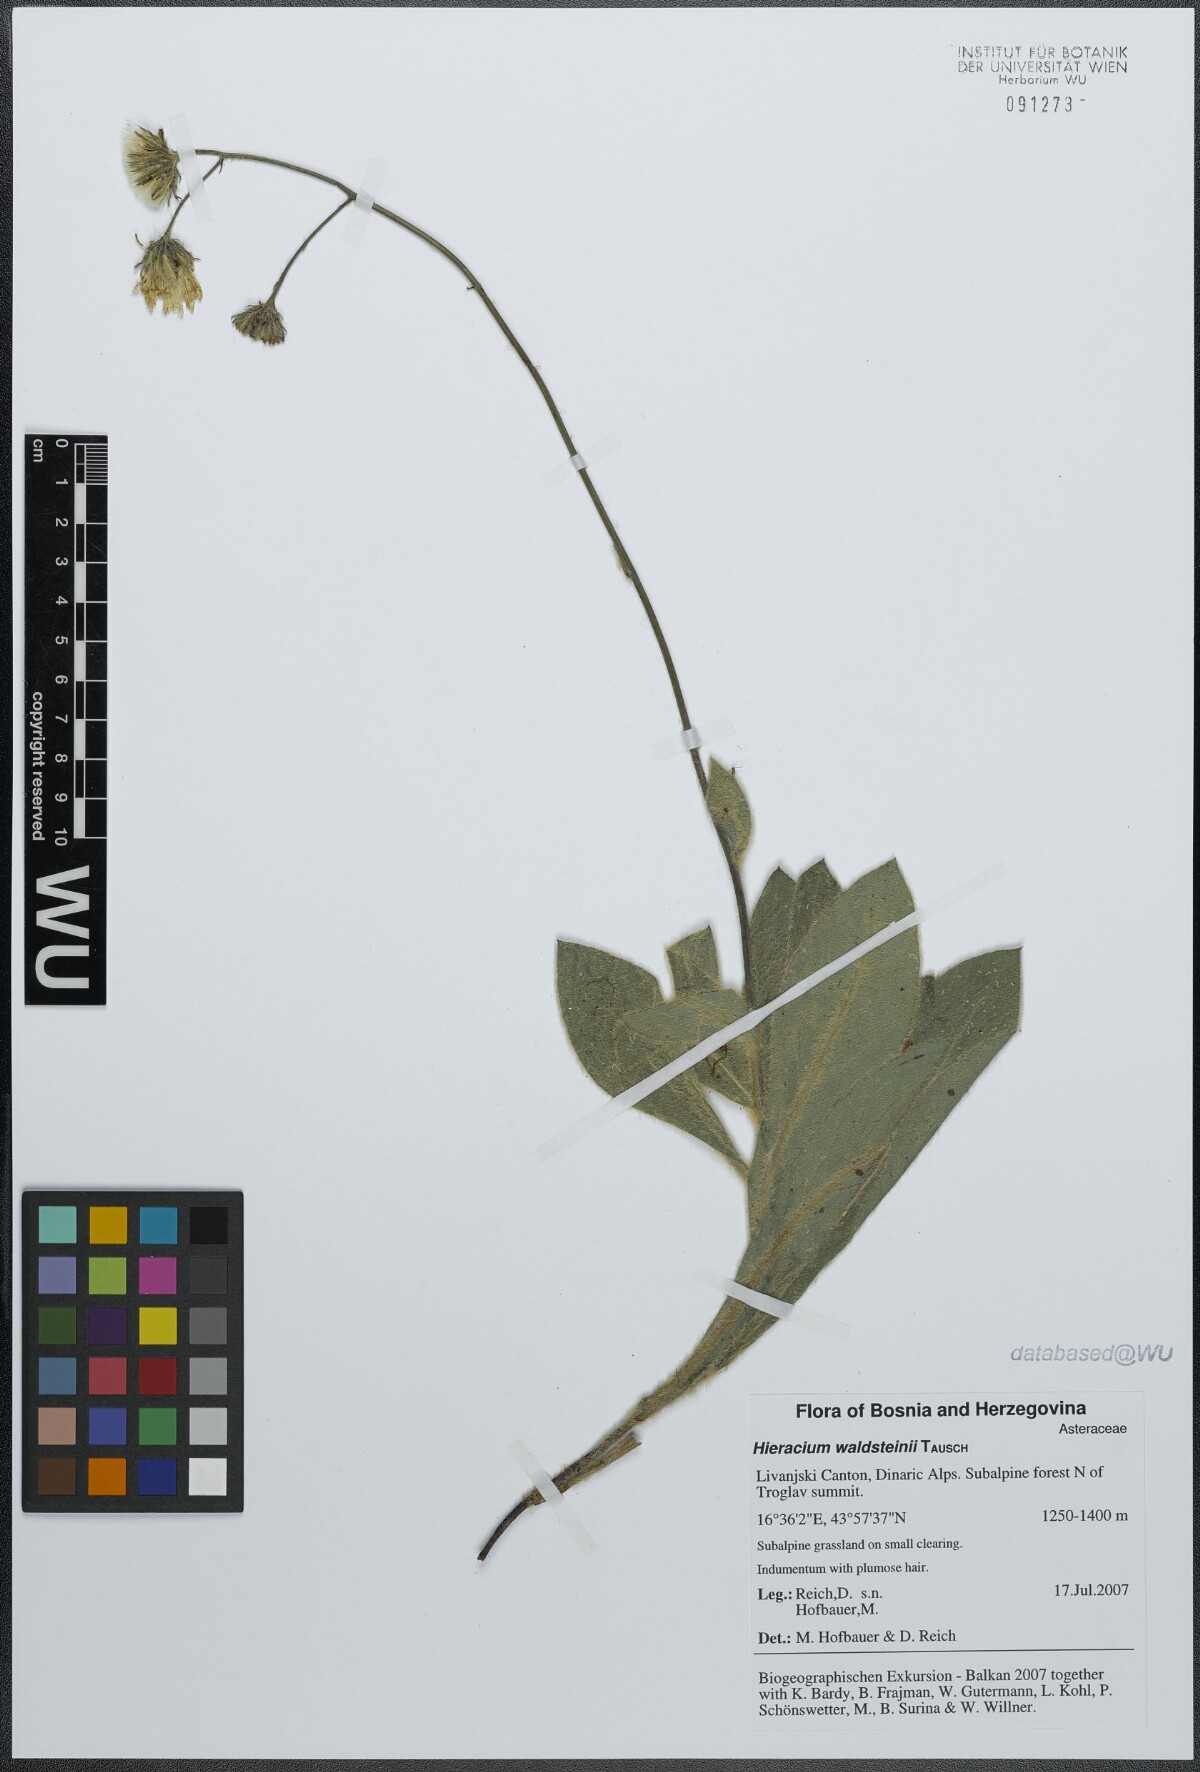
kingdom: Plantae
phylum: Tracheophyta
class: Magnoliopsida
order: Asterales
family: Asteraceae
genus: Hieracium
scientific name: Hieracium waldsteinii
